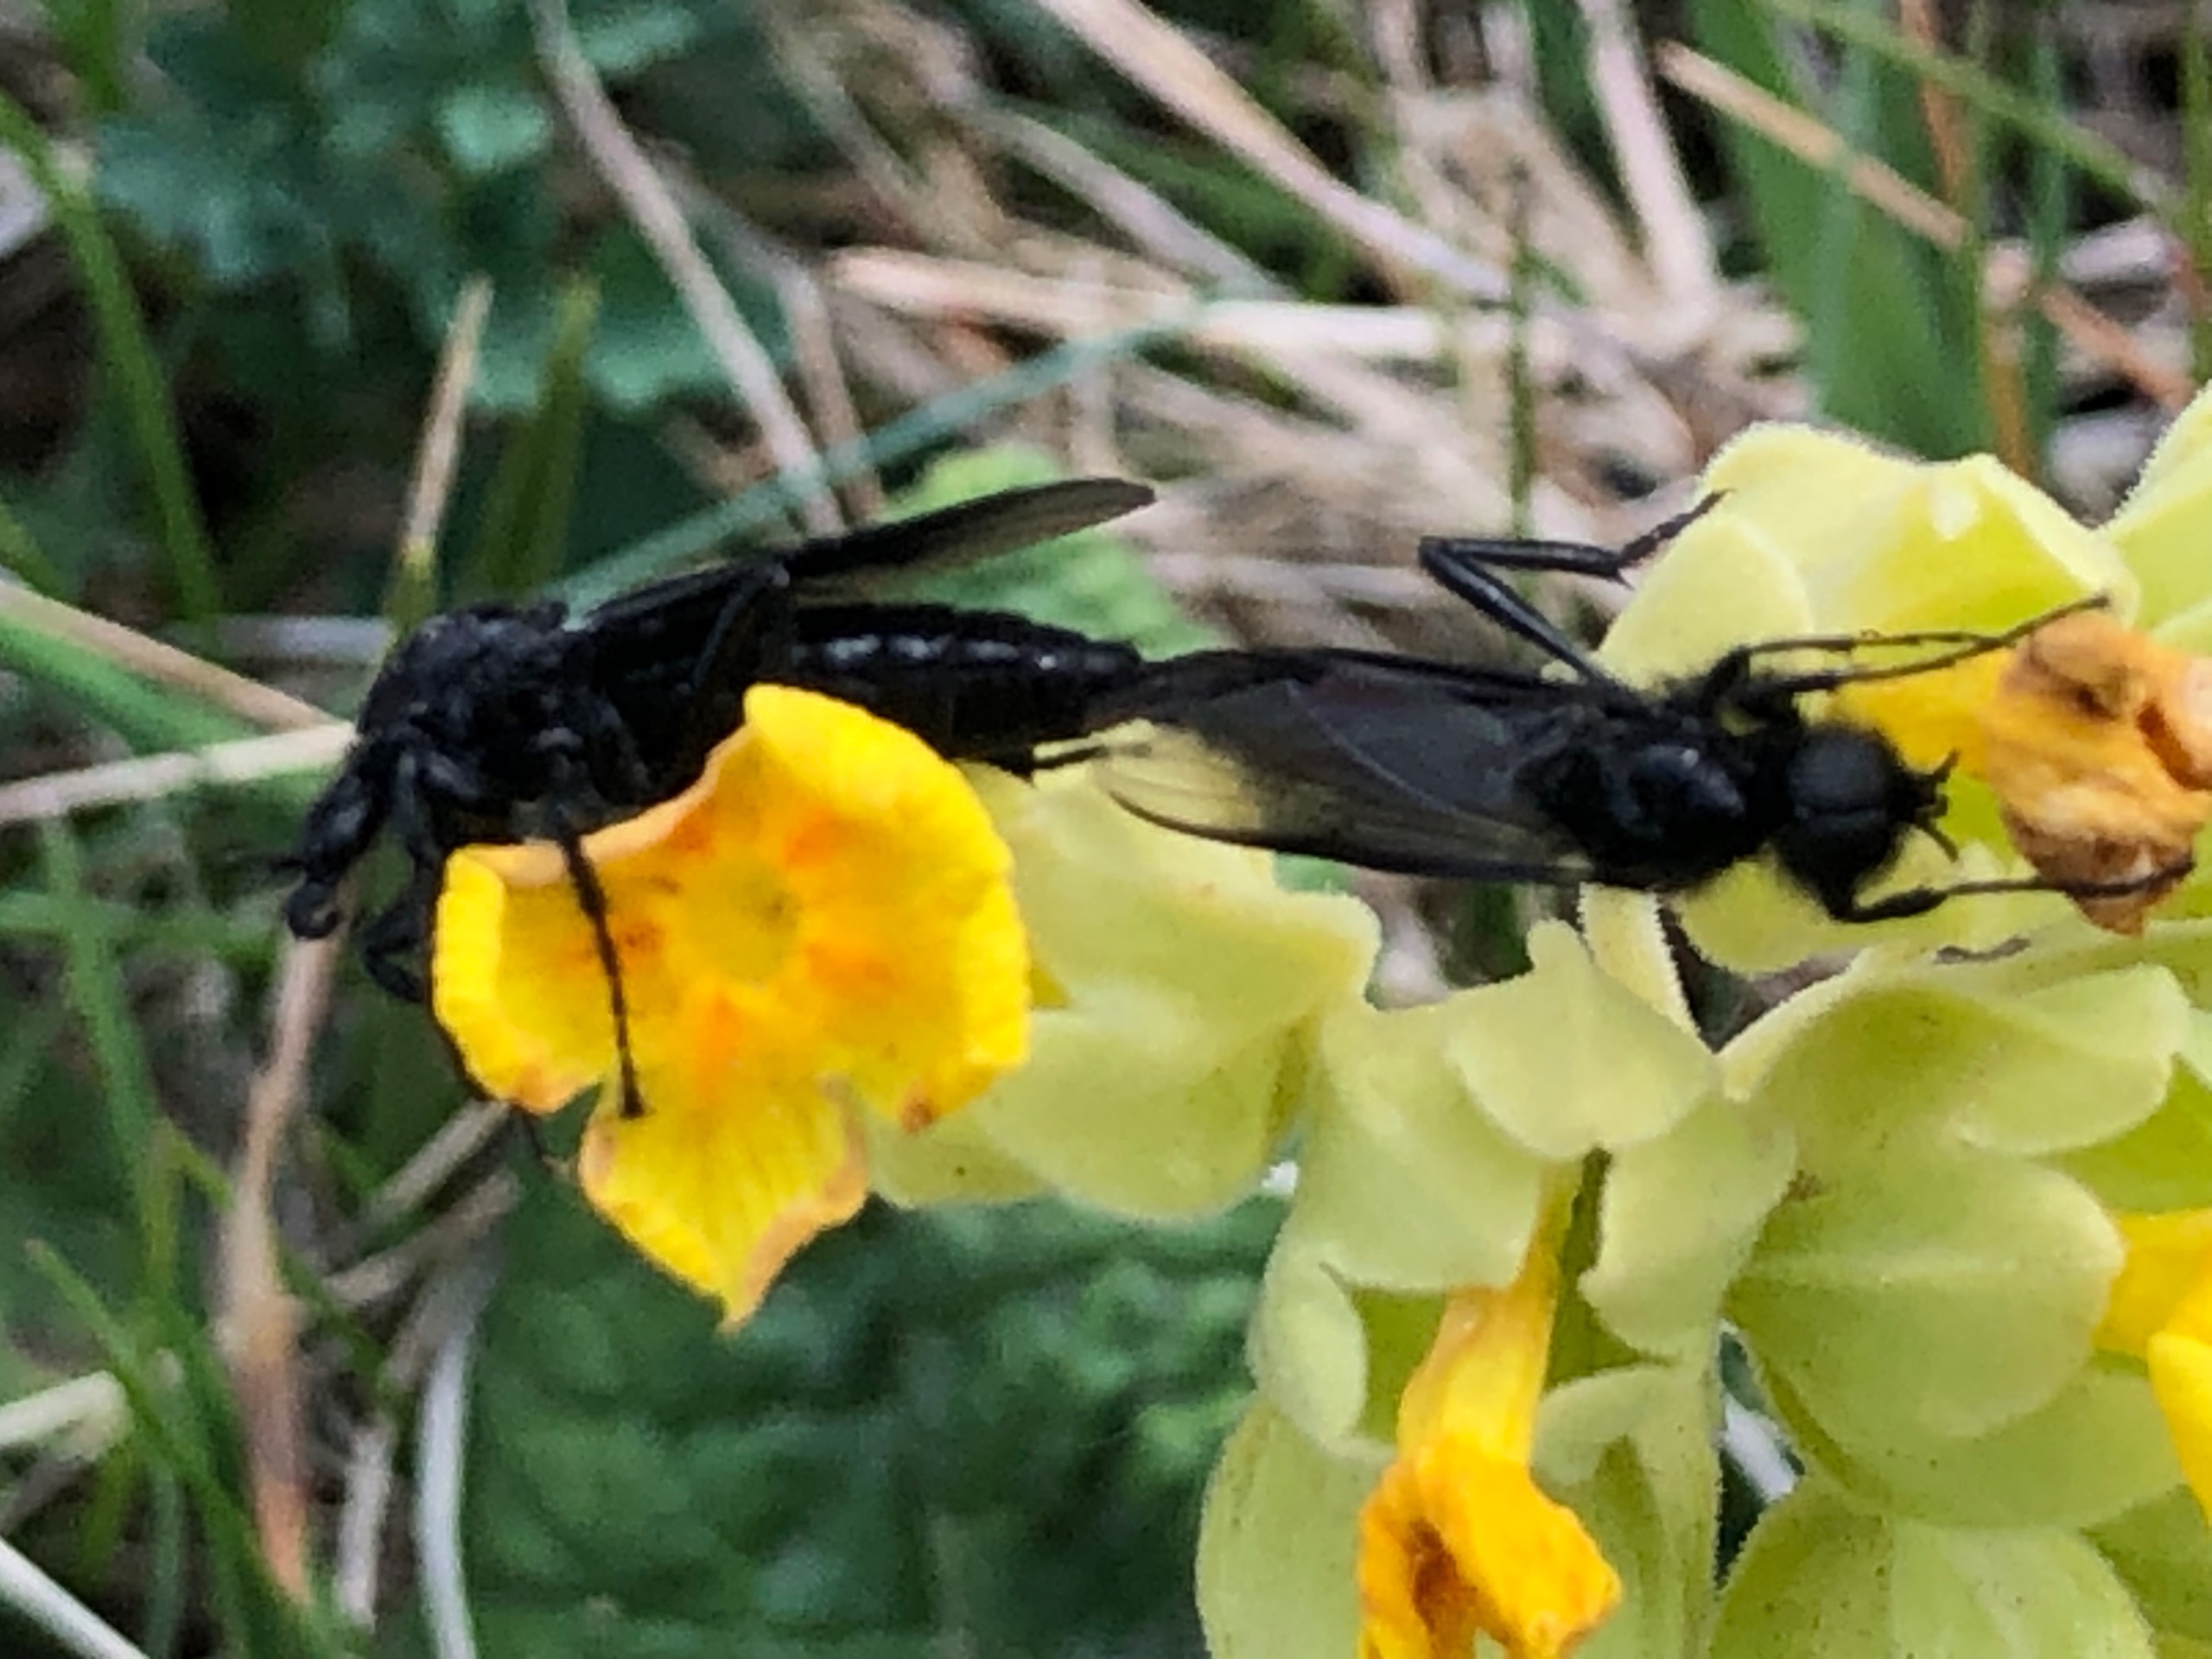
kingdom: Animalia
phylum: Arthropoda
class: Insecta
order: Diptera
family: Bibionidae
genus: Bibio
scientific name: Bibio marci
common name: Skovhårmyg
